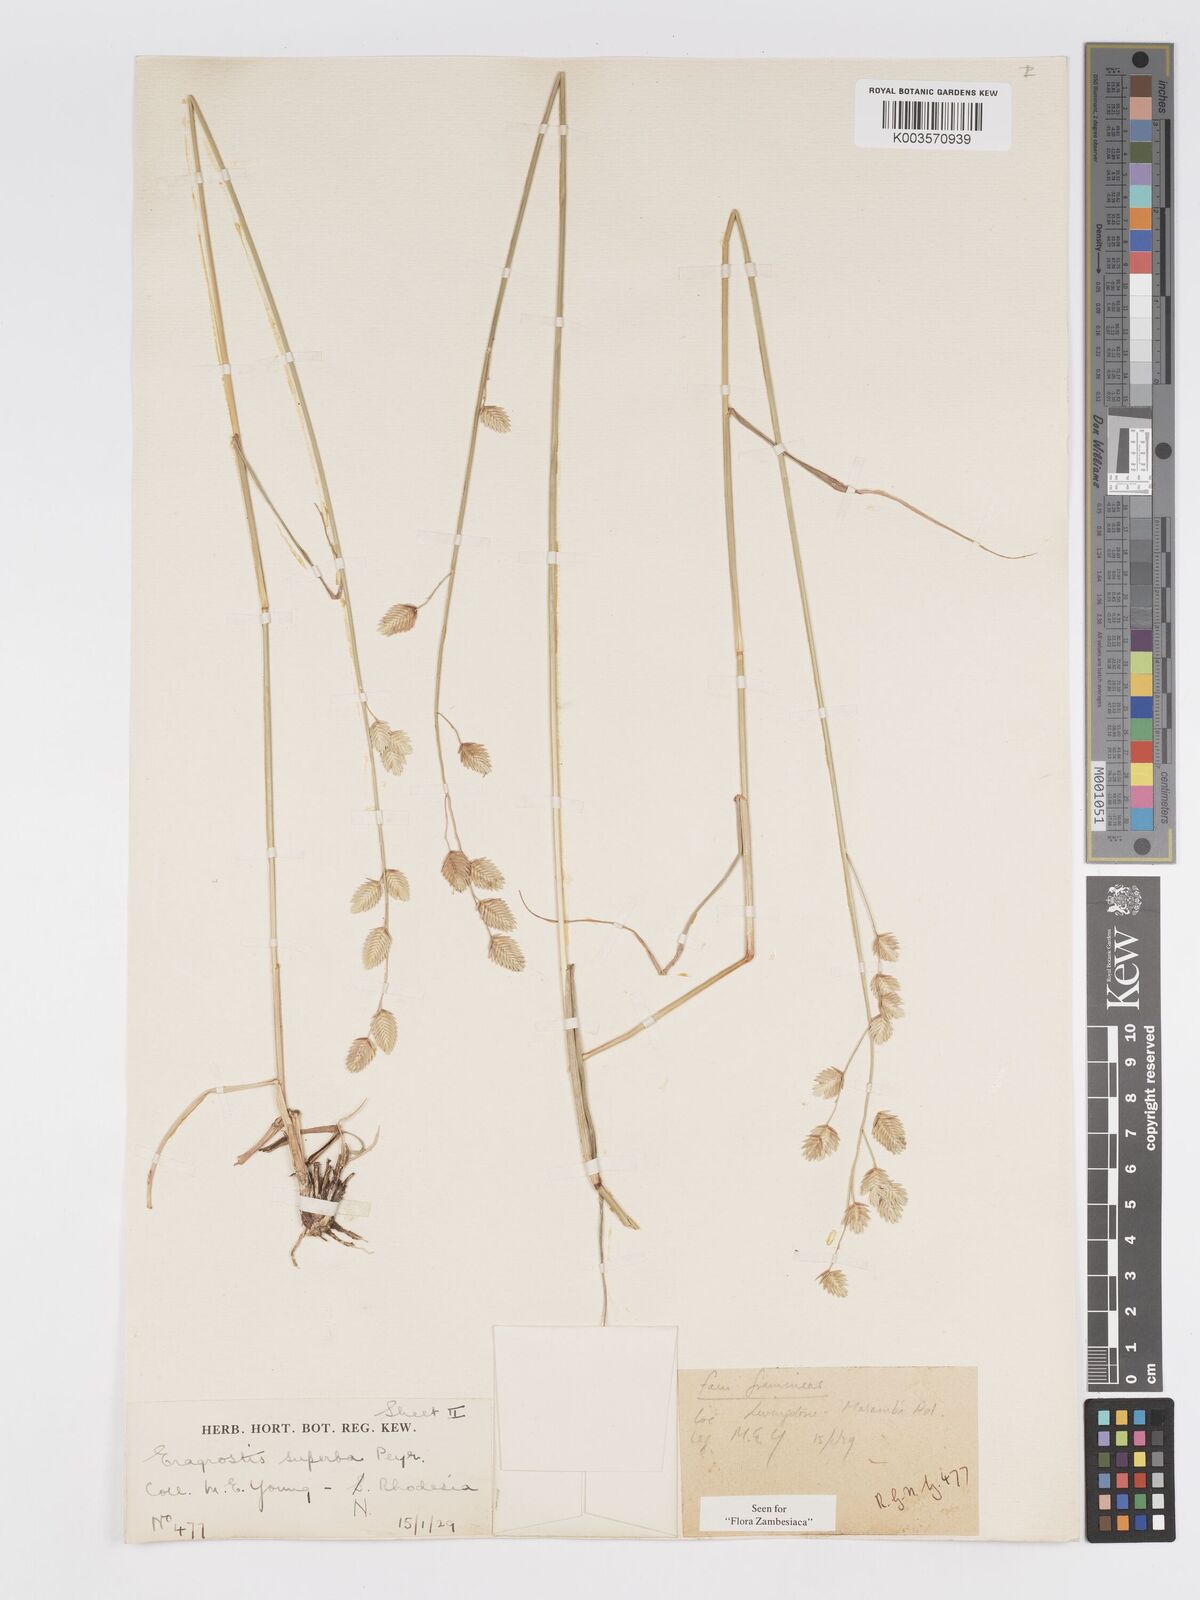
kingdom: Plantae
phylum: Tracheophyta
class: Liliopsida
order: Poales
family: Poaceae
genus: Eragrostis
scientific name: Eragrostis superba
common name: Wilman lovegrass
